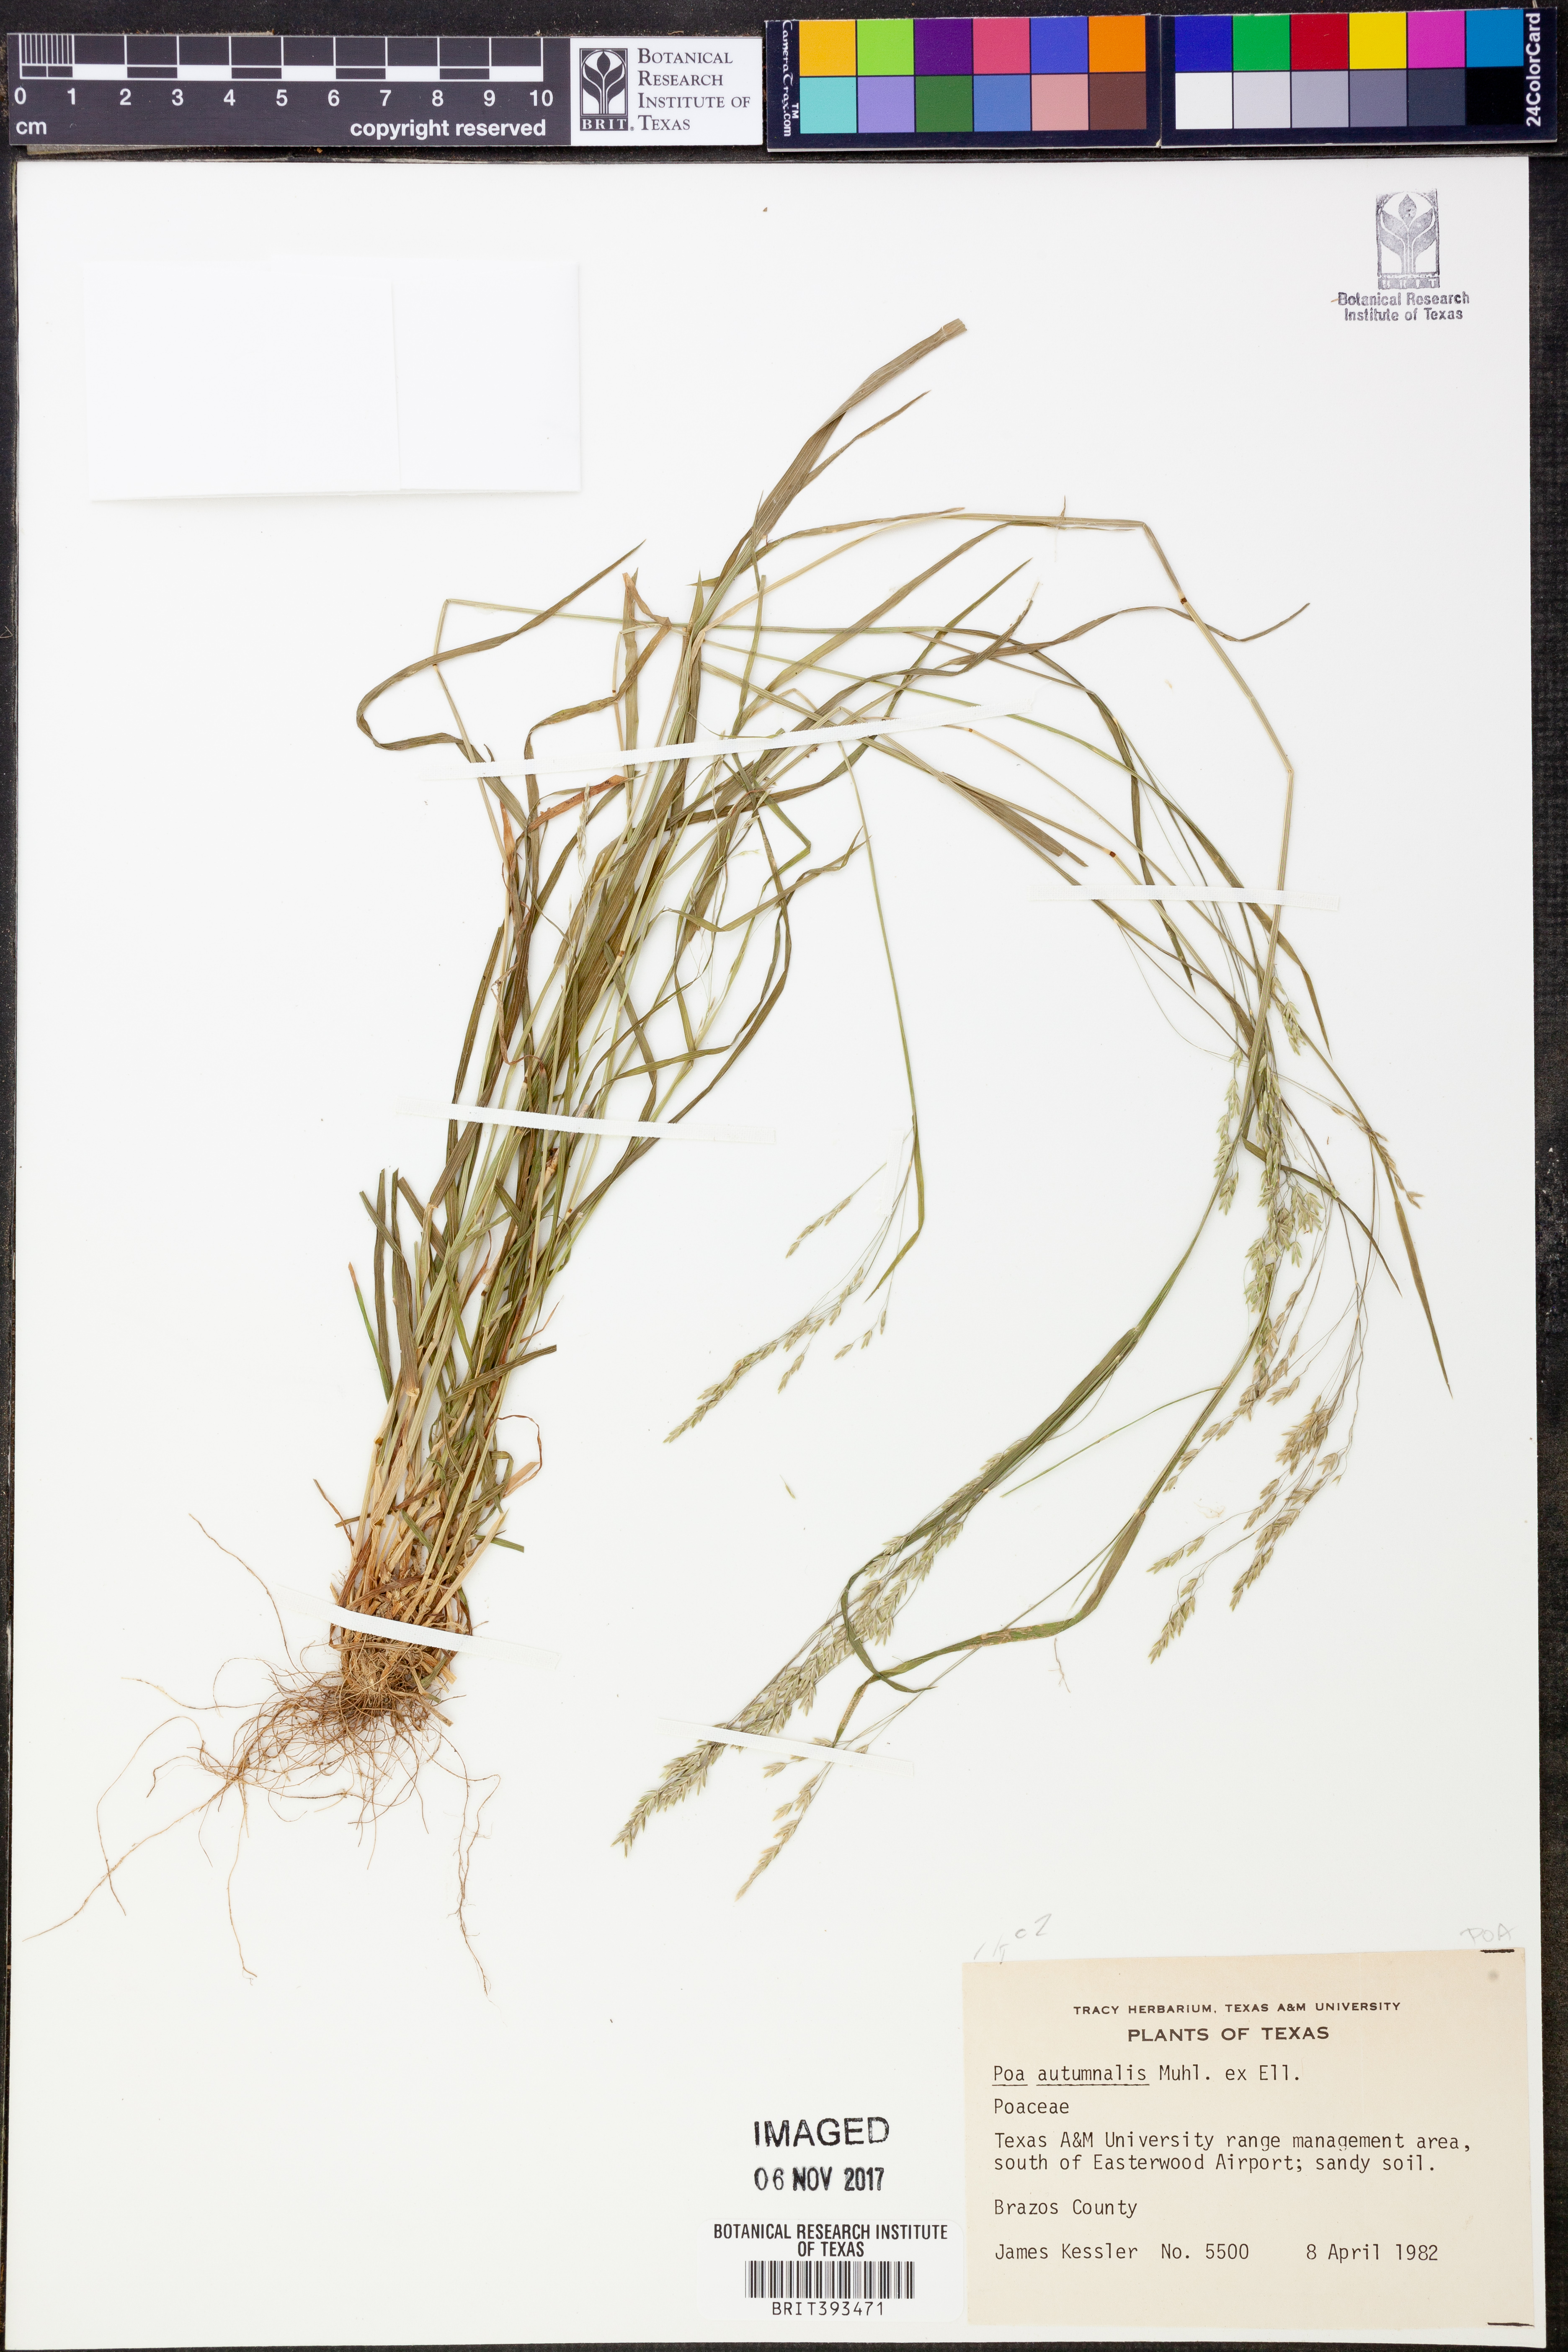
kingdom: Plantae
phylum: Tracheophyta
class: Liliopsida
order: Poales
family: Poaceae
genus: Poa
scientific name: Poa autumnalis
